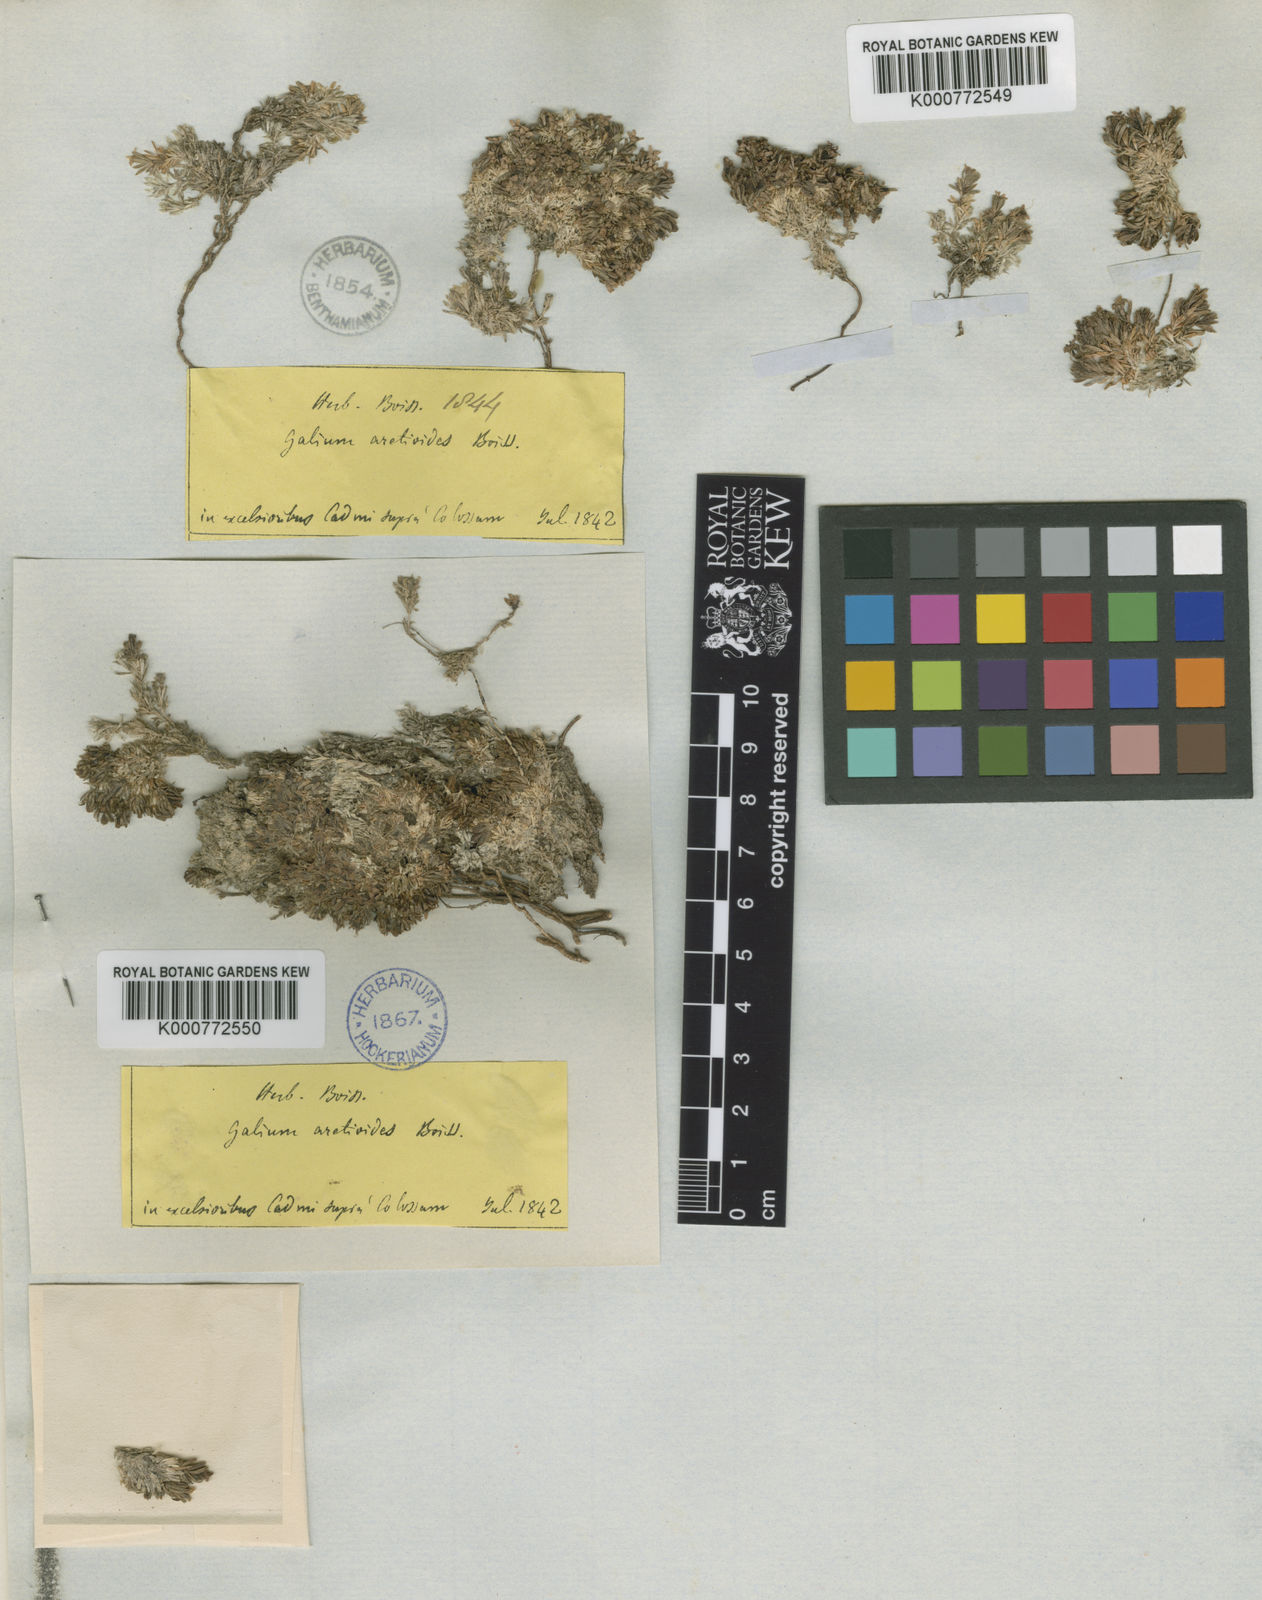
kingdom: Plantae
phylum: Tracheophyta
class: Magnoliopsida
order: Gentianales
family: Rubiaceae
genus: Galium
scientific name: Galium aretioides
